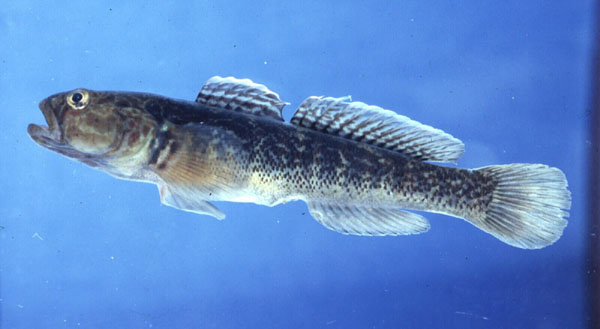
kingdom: Animalia
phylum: Chordata
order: Perciformes
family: Gobiidae
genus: Caffrogobius
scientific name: Caffrogobius caffer
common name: Banded goby
